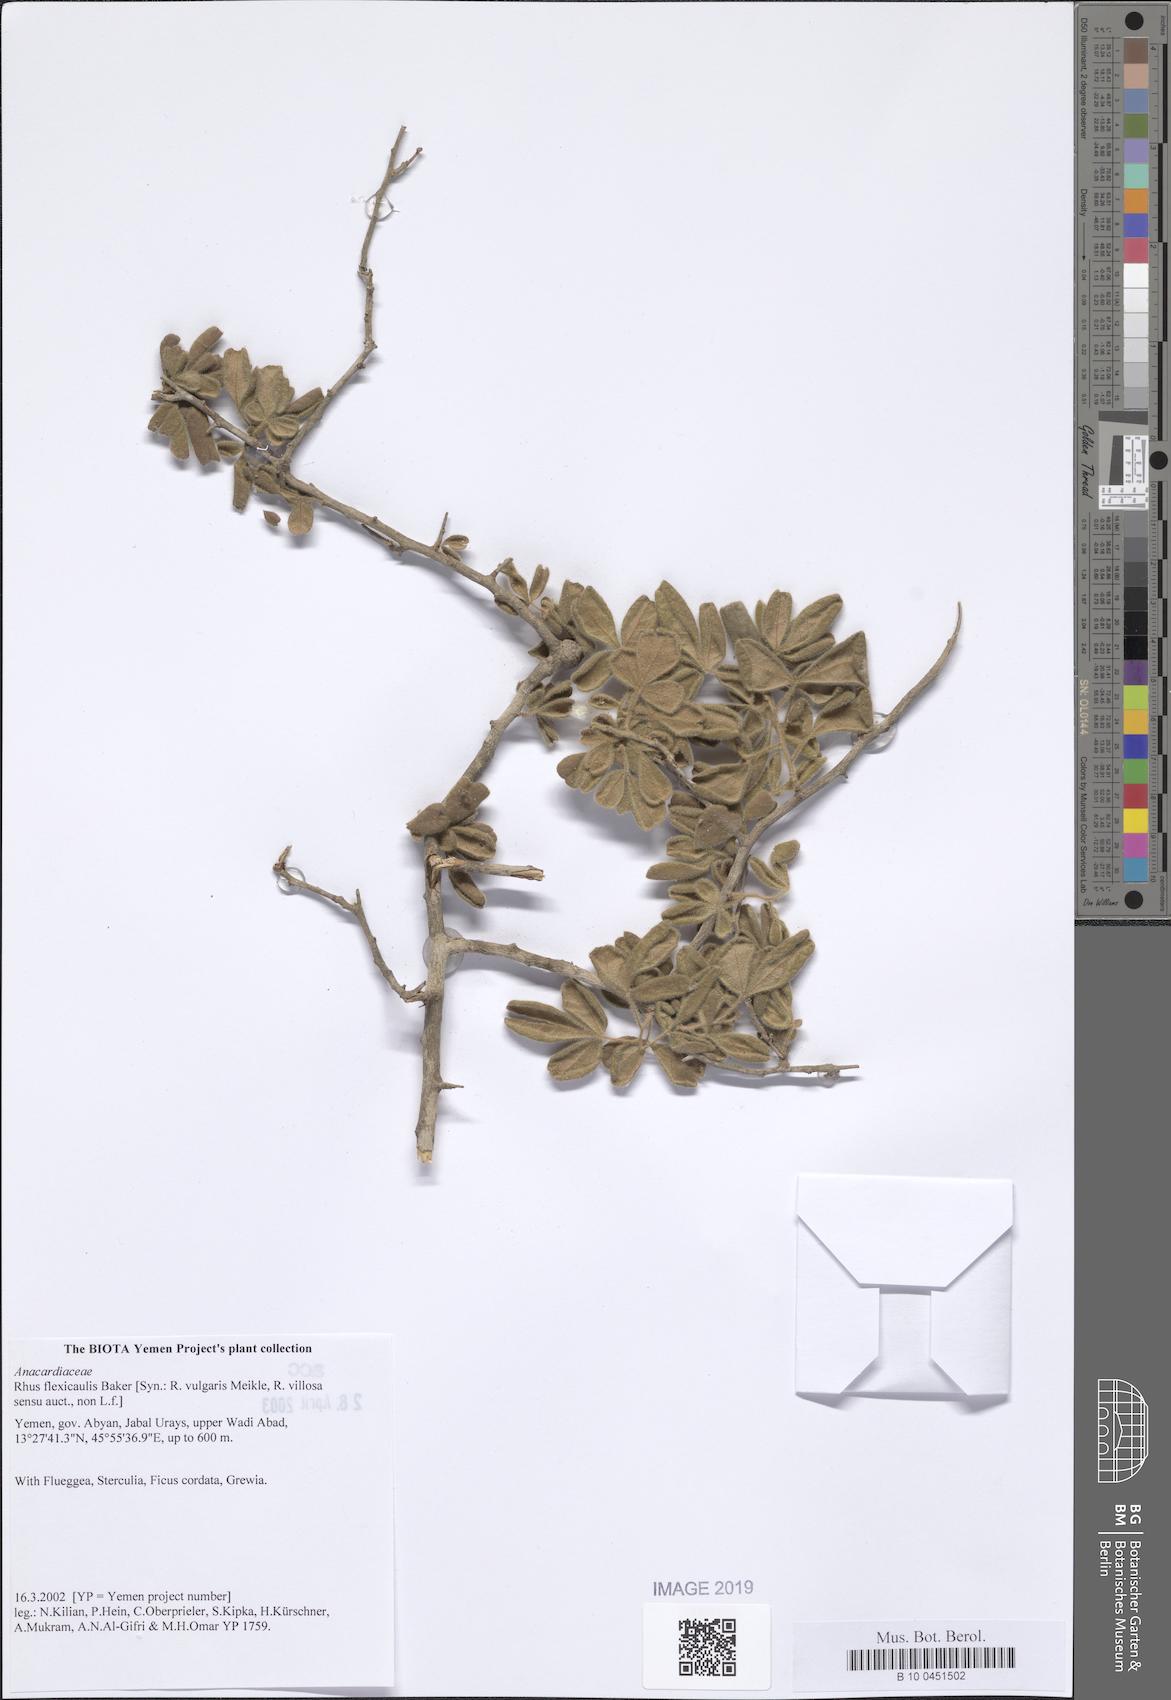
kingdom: Plantae
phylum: Tracheophyta
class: Magnoliopsida
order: Sapindales
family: Anacardiaceae
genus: Searsia
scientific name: Searsia flexicaulis
